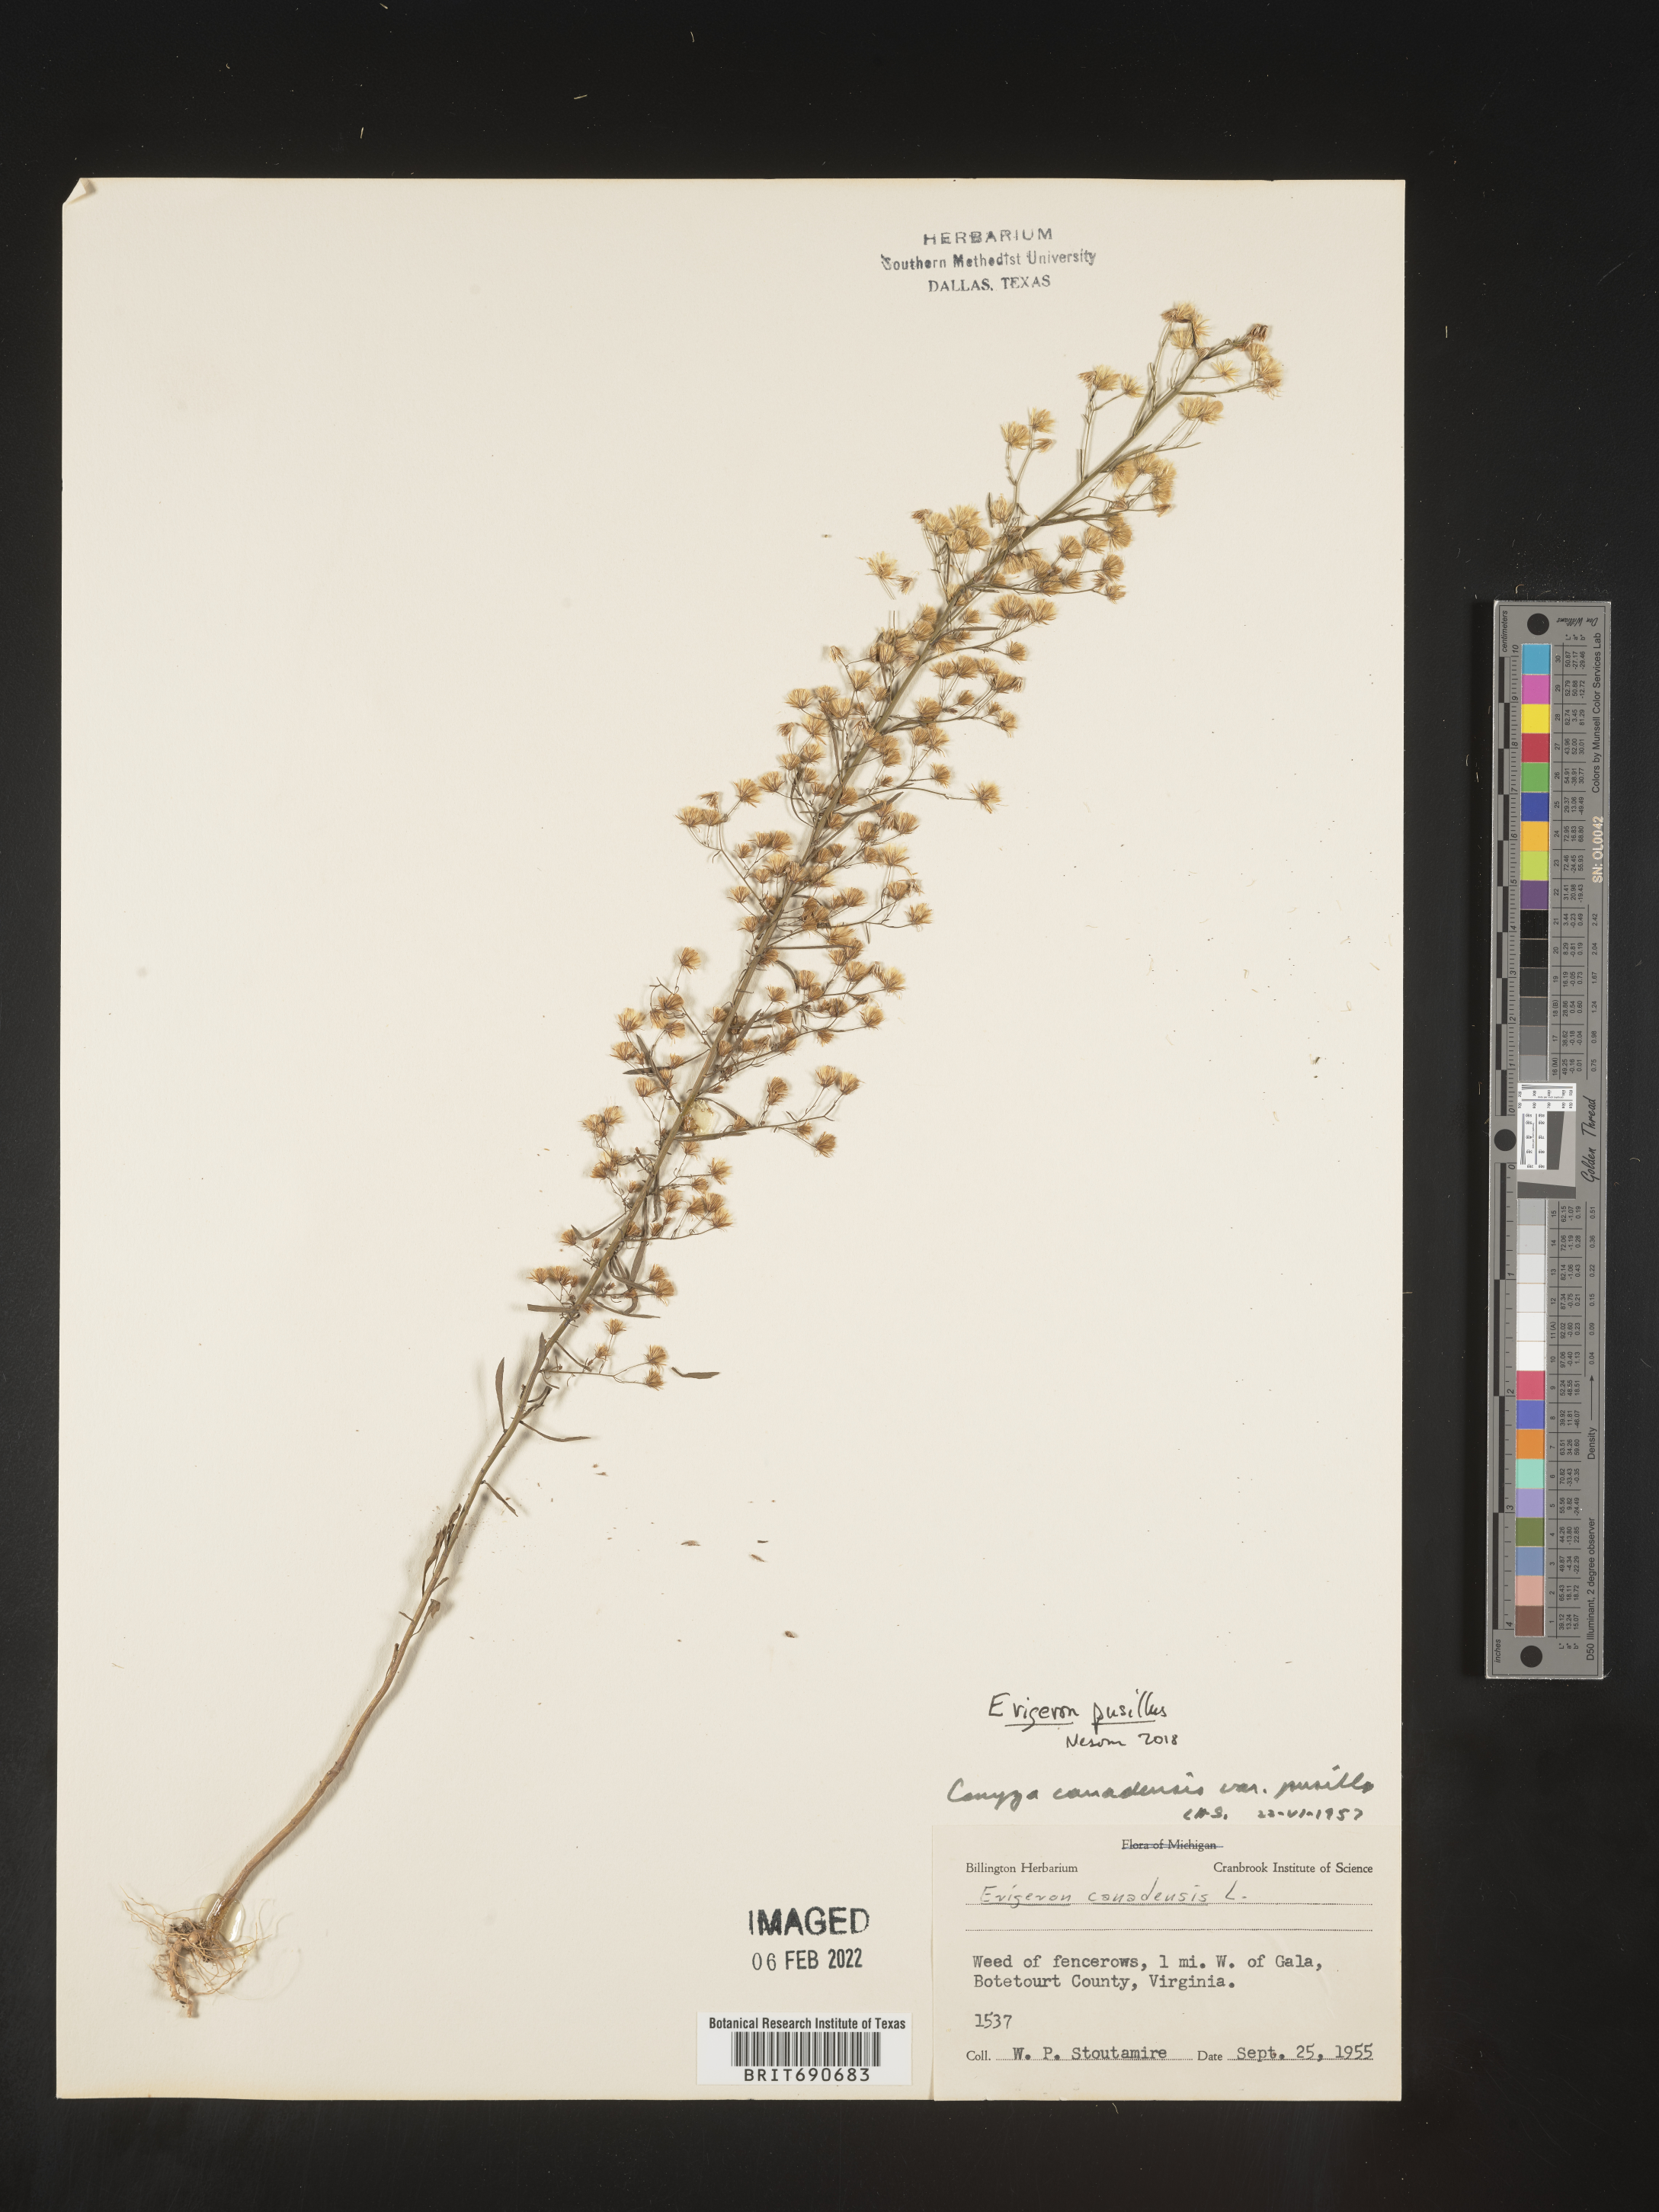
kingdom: Plantae
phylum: Tracheophyta
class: Magnoliopsida
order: Asterales
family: Asteraceae
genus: Erigeron
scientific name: Erigeron canadensis
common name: Canadian fleabane
